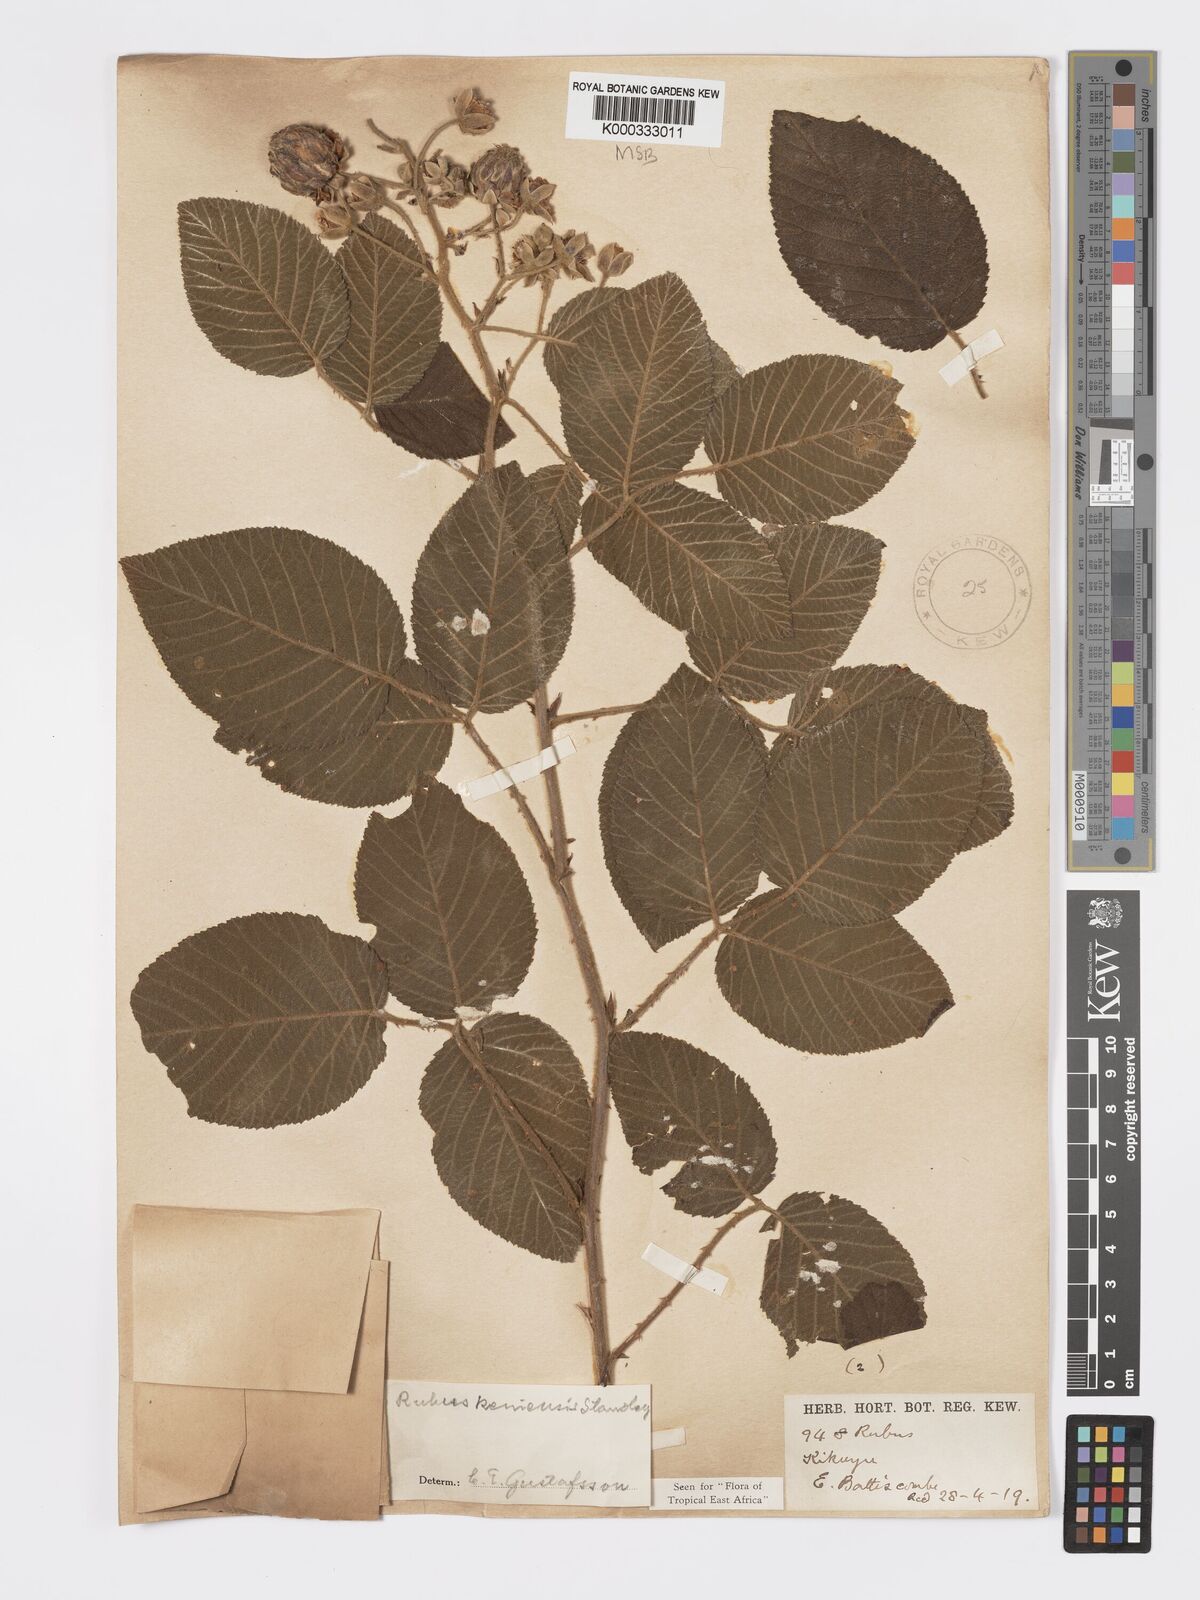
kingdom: Plantae
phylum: Tracheophyta
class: Magnoliopsida
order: Rosales
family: Rosaceae
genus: Rubus
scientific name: Rubus keniensis
